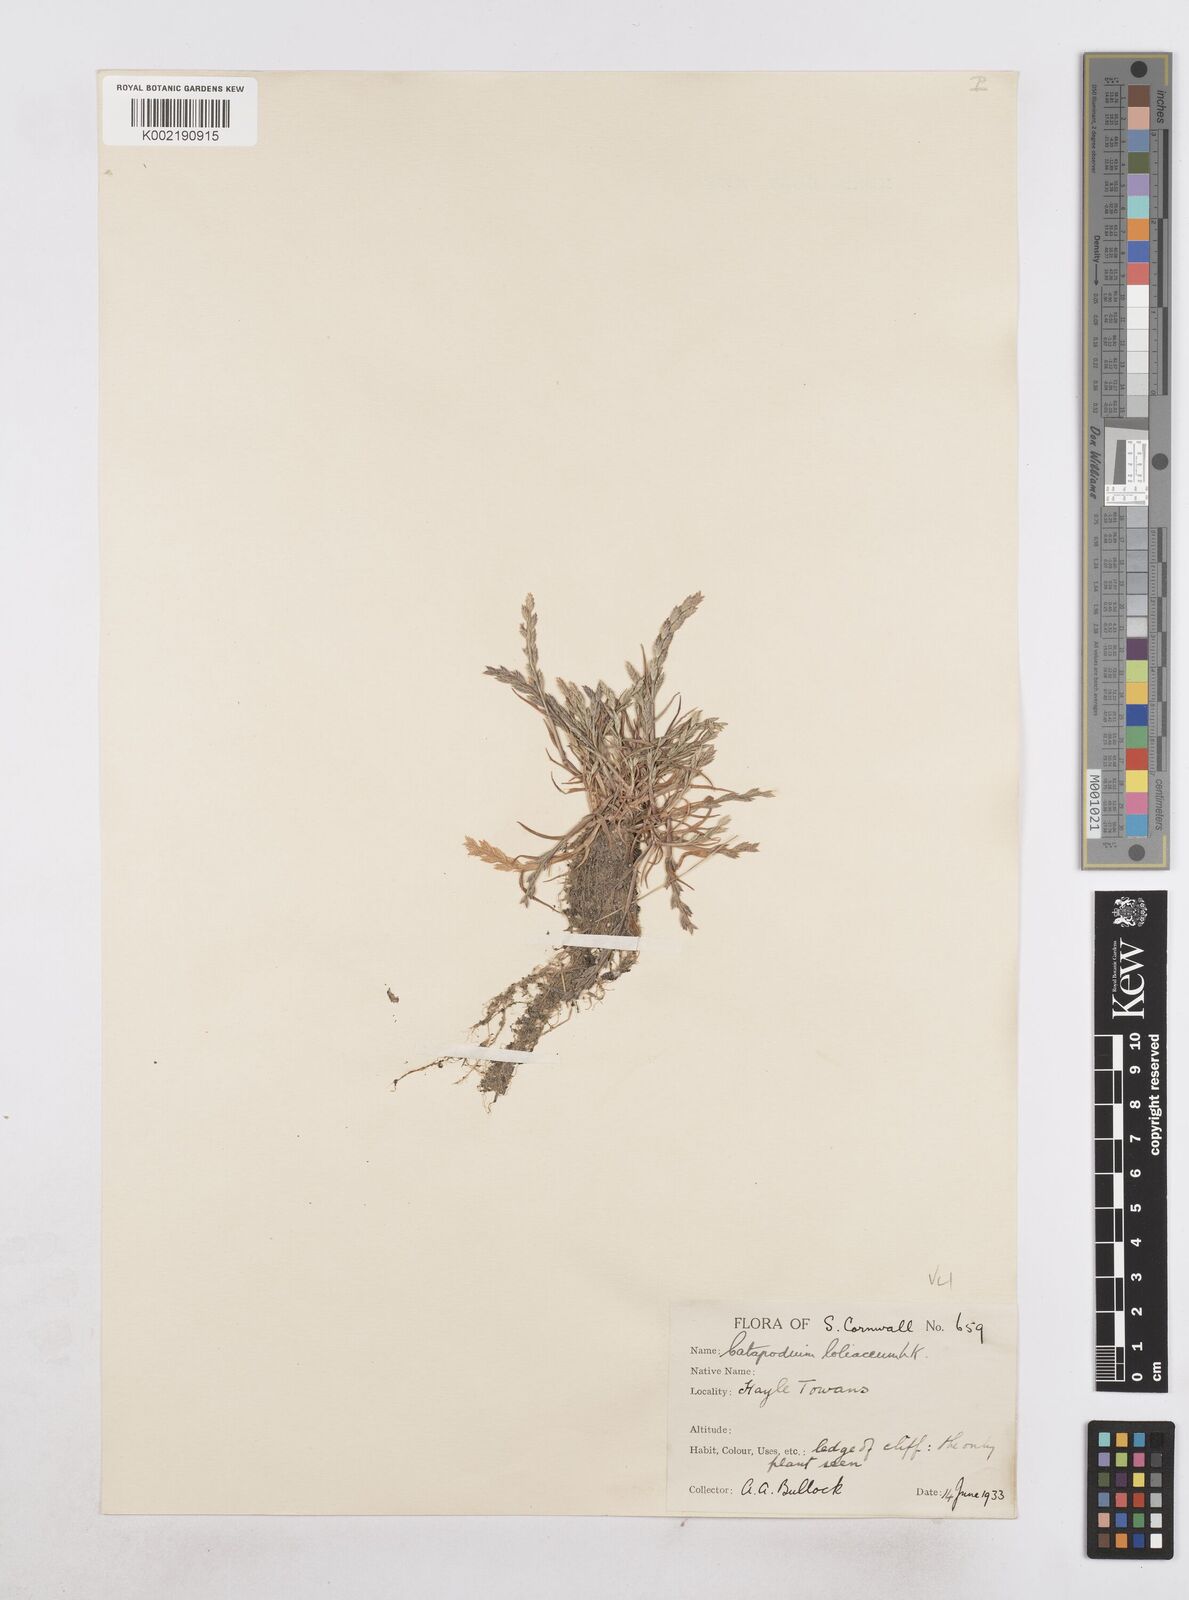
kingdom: Plantae
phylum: Tracheophyta
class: Liliopsida
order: Poales
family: Poaceae
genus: Catapodium
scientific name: Catapodium marinum
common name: Sea fern-grass
